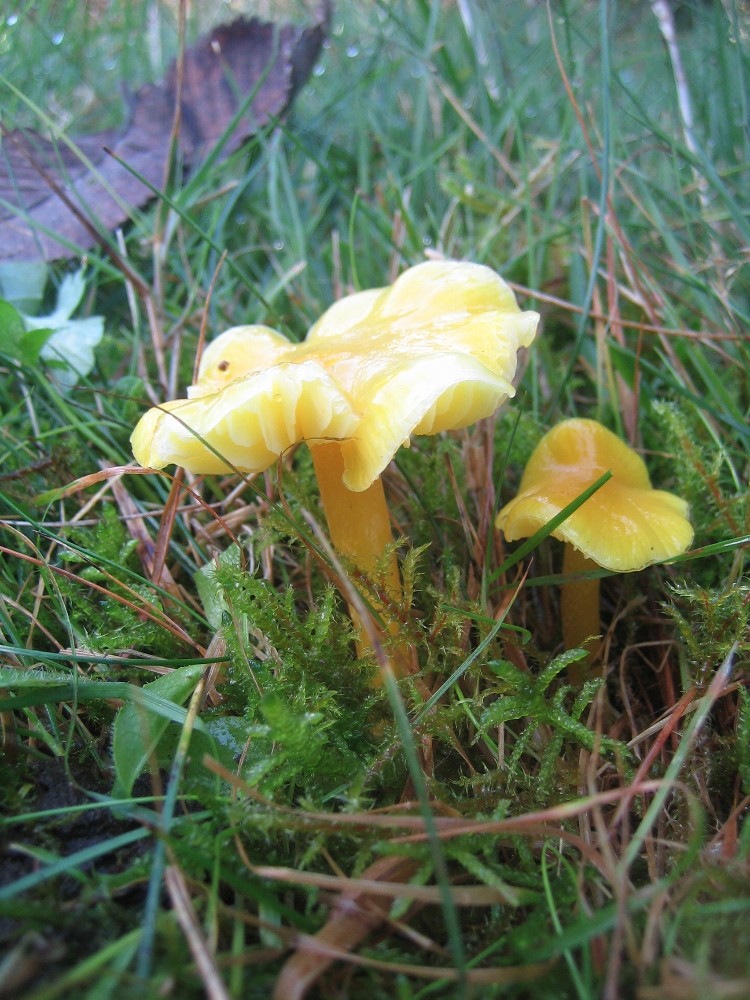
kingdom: Fungi
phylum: Basidiomycota
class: Agaricomycetes
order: Agaricales
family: Hygrophoraceae
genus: Hygrocybe
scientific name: Hygrocybe chlorophana
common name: gul vokshat
